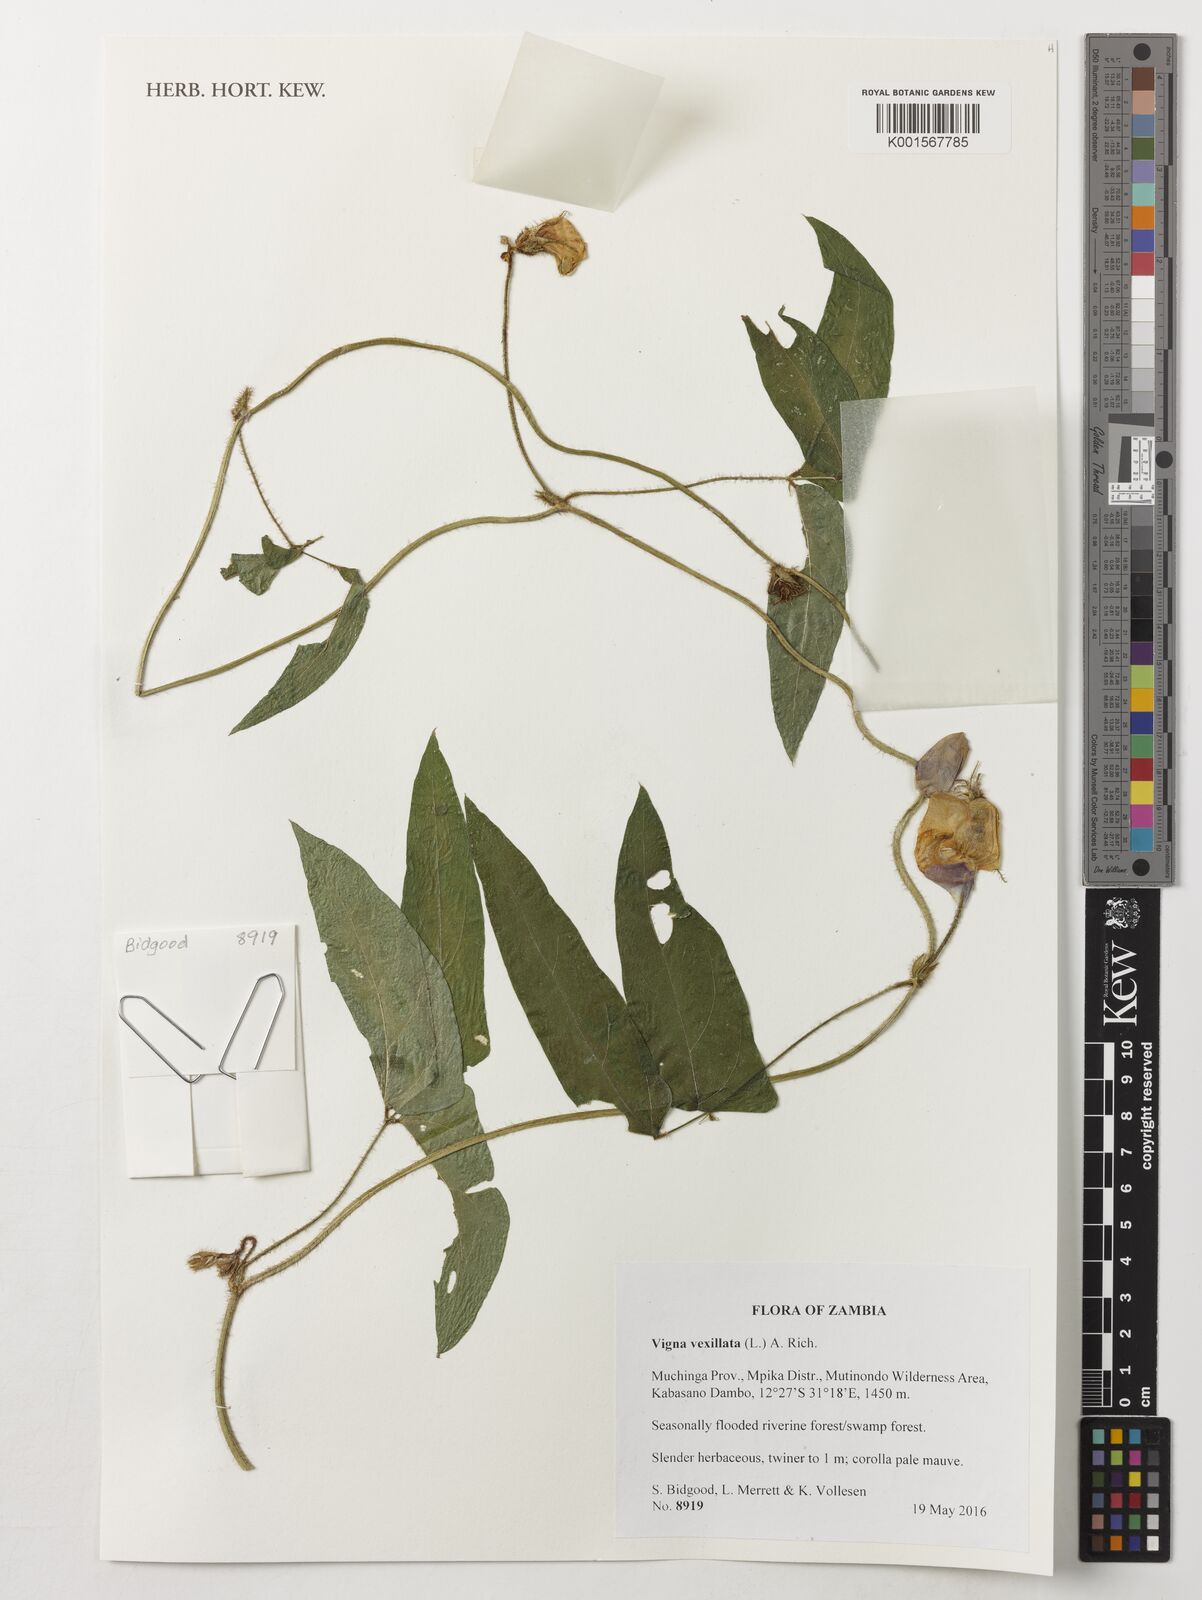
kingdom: Plantae
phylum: Tracheophyta
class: Magnoliopsida
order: Fabales
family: Fabaceae
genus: Vigna
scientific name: Vigna vexillata
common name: Zombi pea
